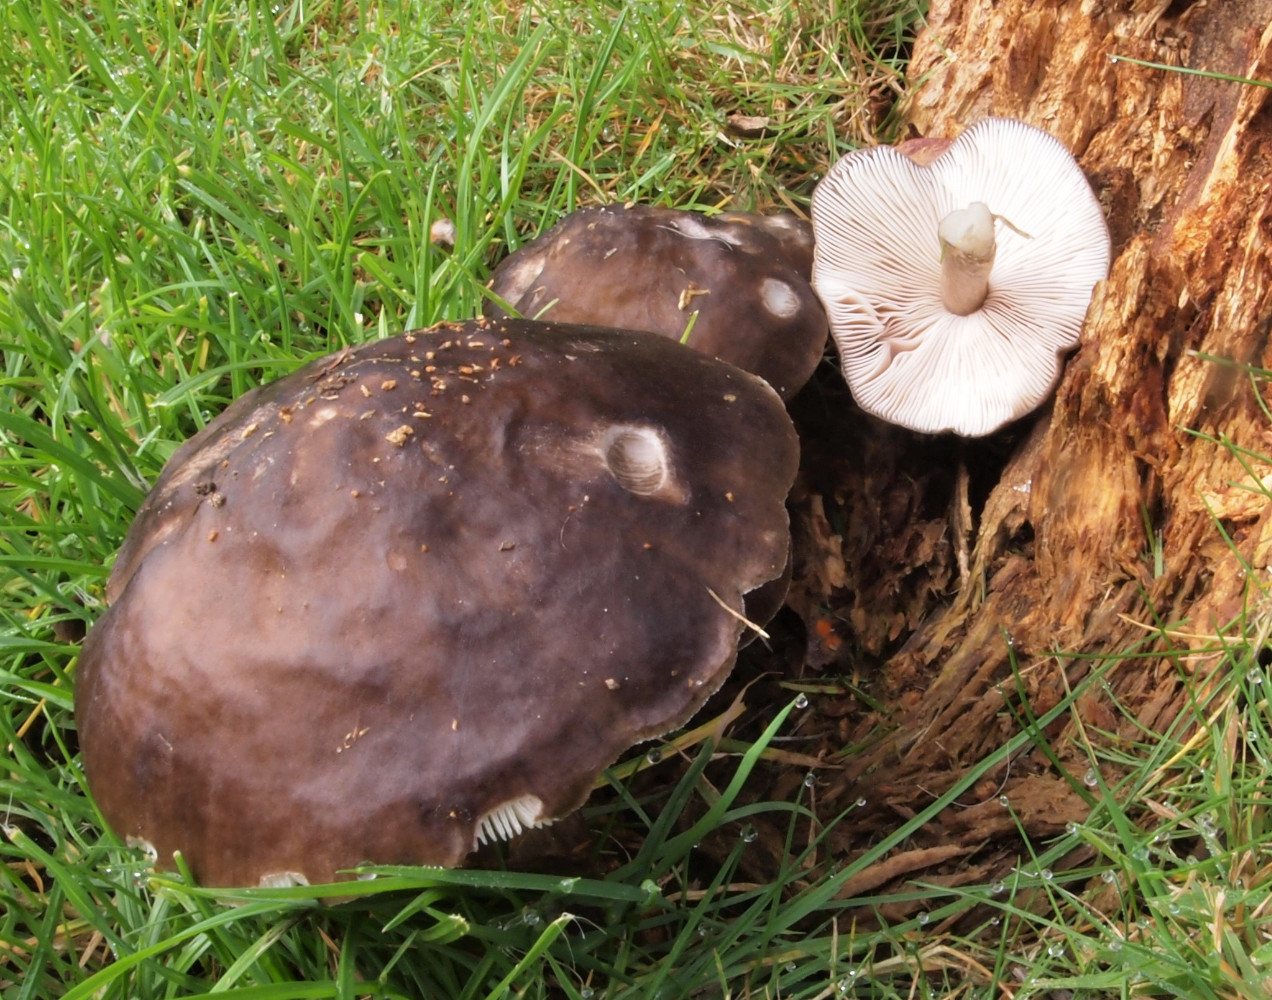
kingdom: Fungi
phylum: Basidiomycota
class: Agaricomycetes
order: Agaricales
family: Pluteaceae
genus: Pluteus
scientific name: Pluteus cervinus
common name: sodfarvet skærmhat
